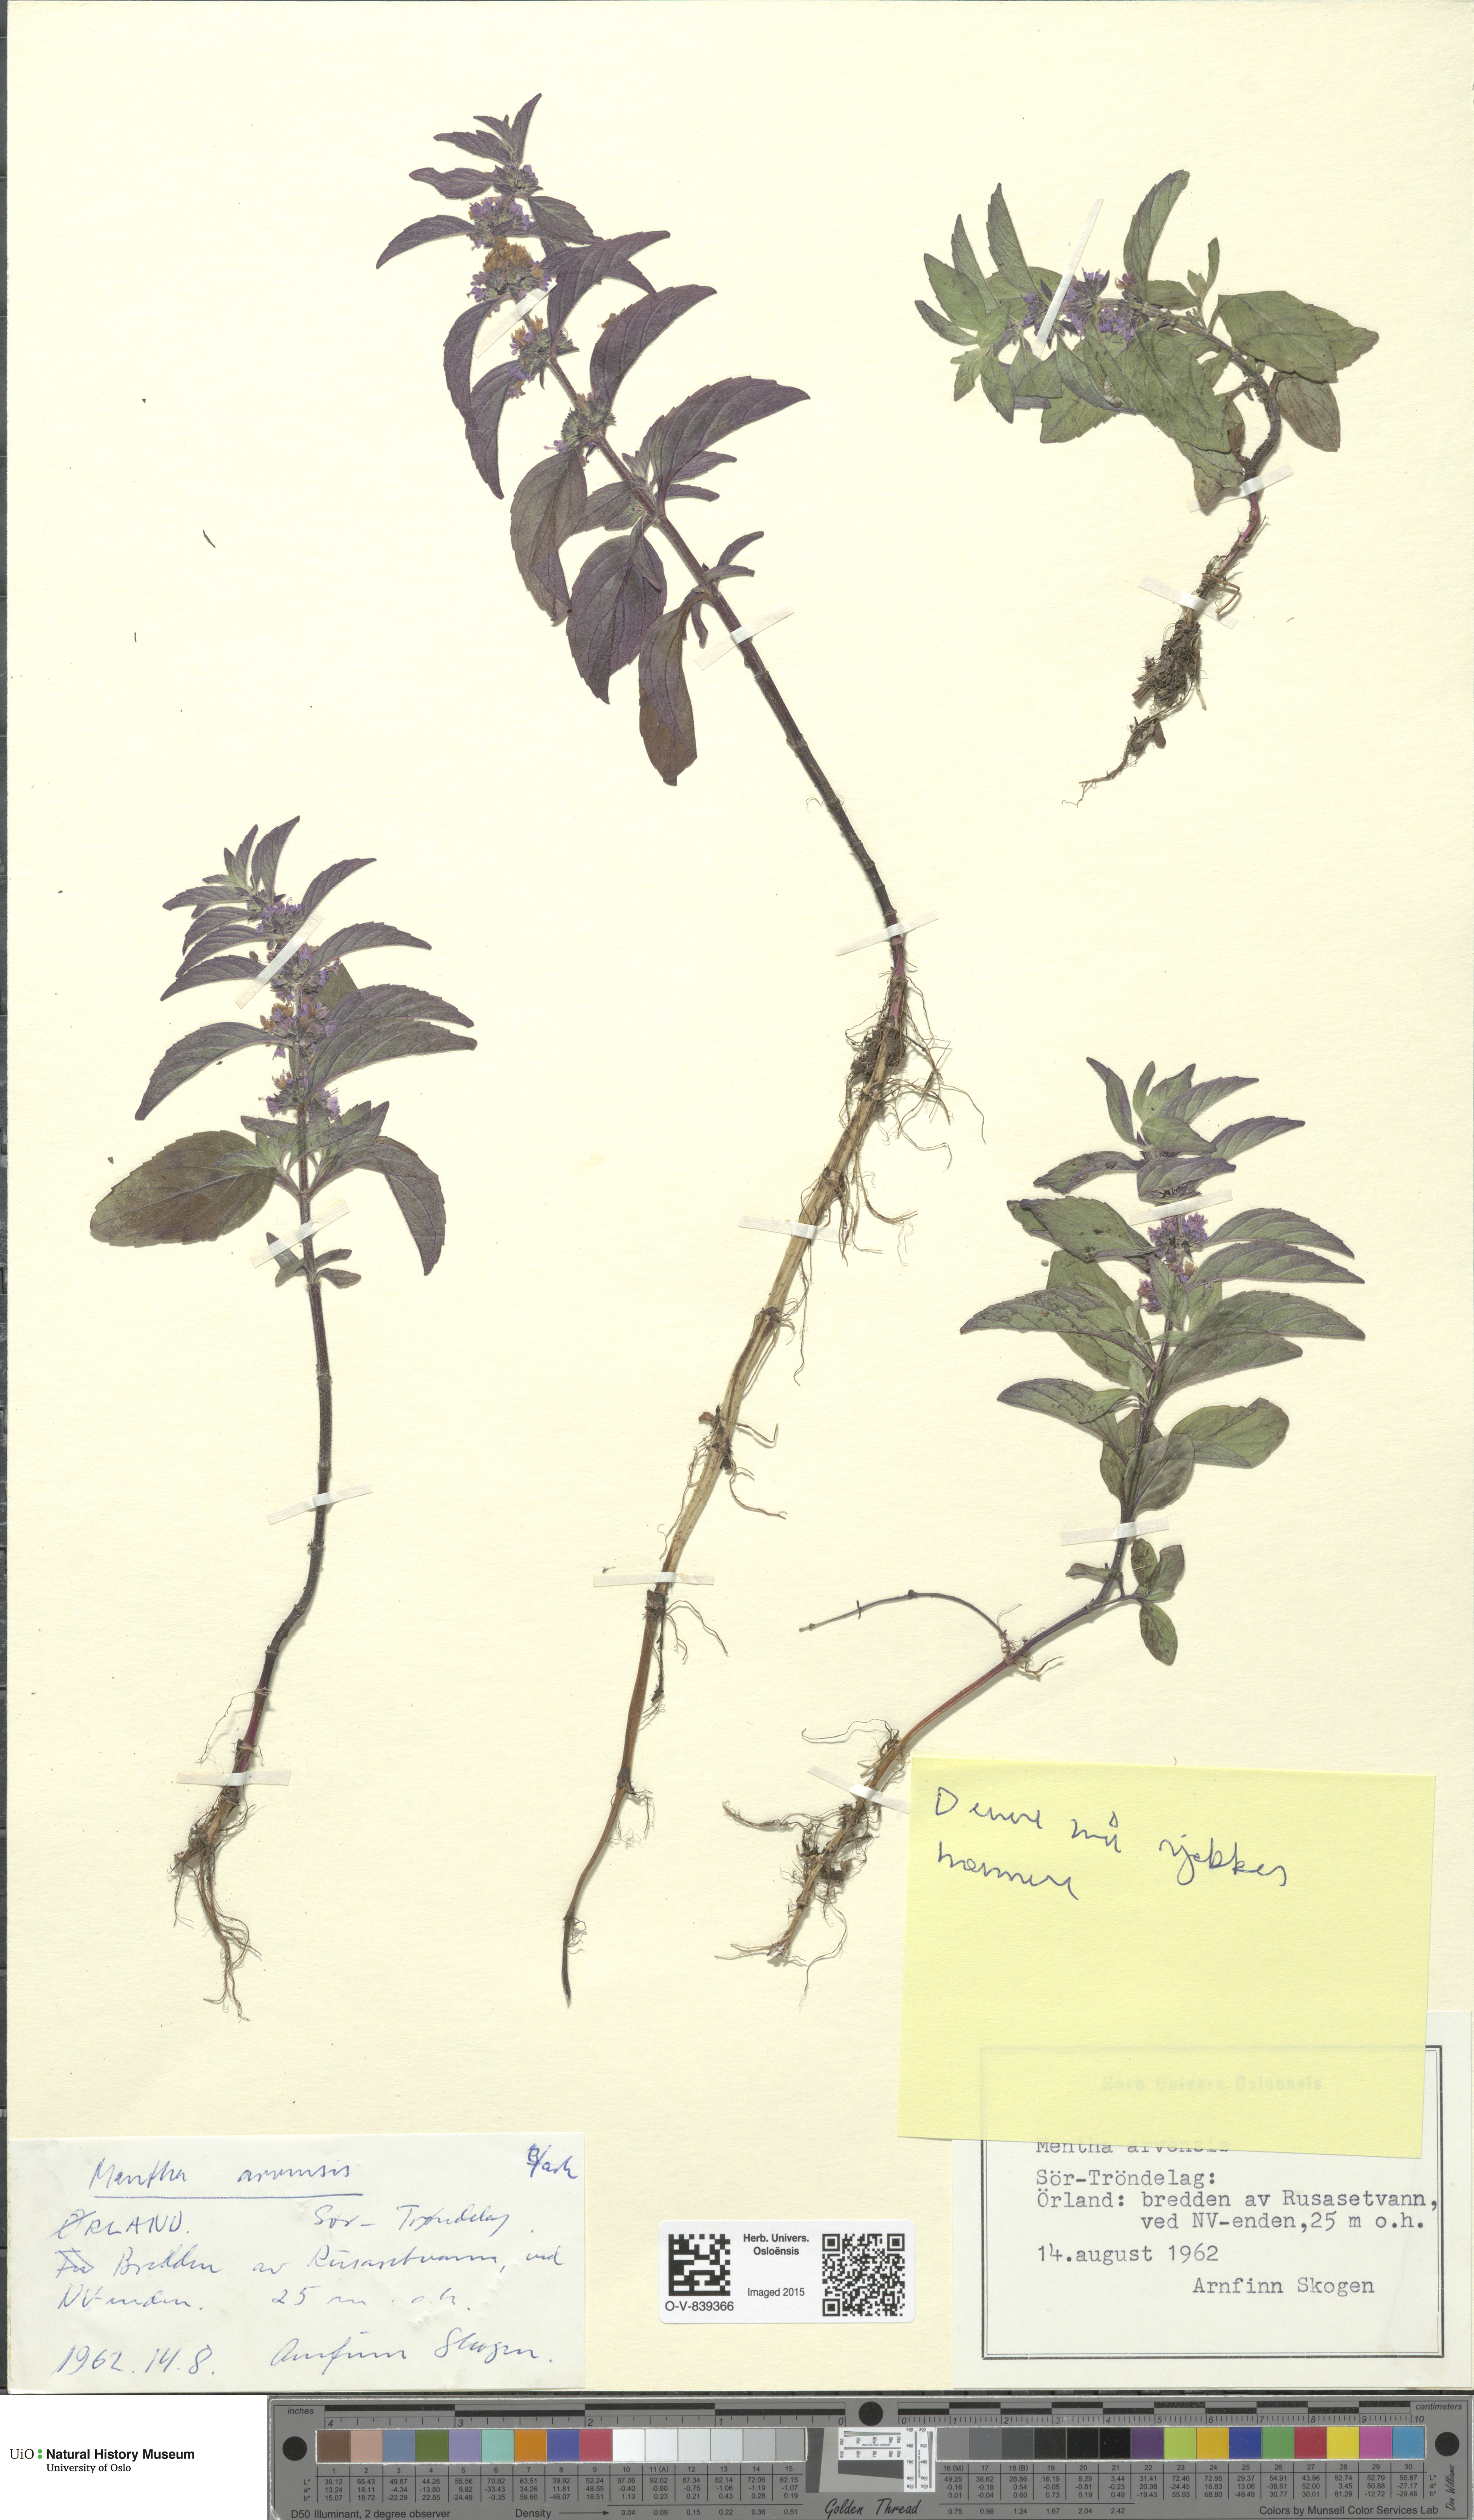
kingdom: Plantae
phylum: Tracheophyta
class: Magnoliopsida
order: Lamiales
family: Lamiaceae
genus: Mentha
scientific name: Mentha arvensis
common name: Corn mint
